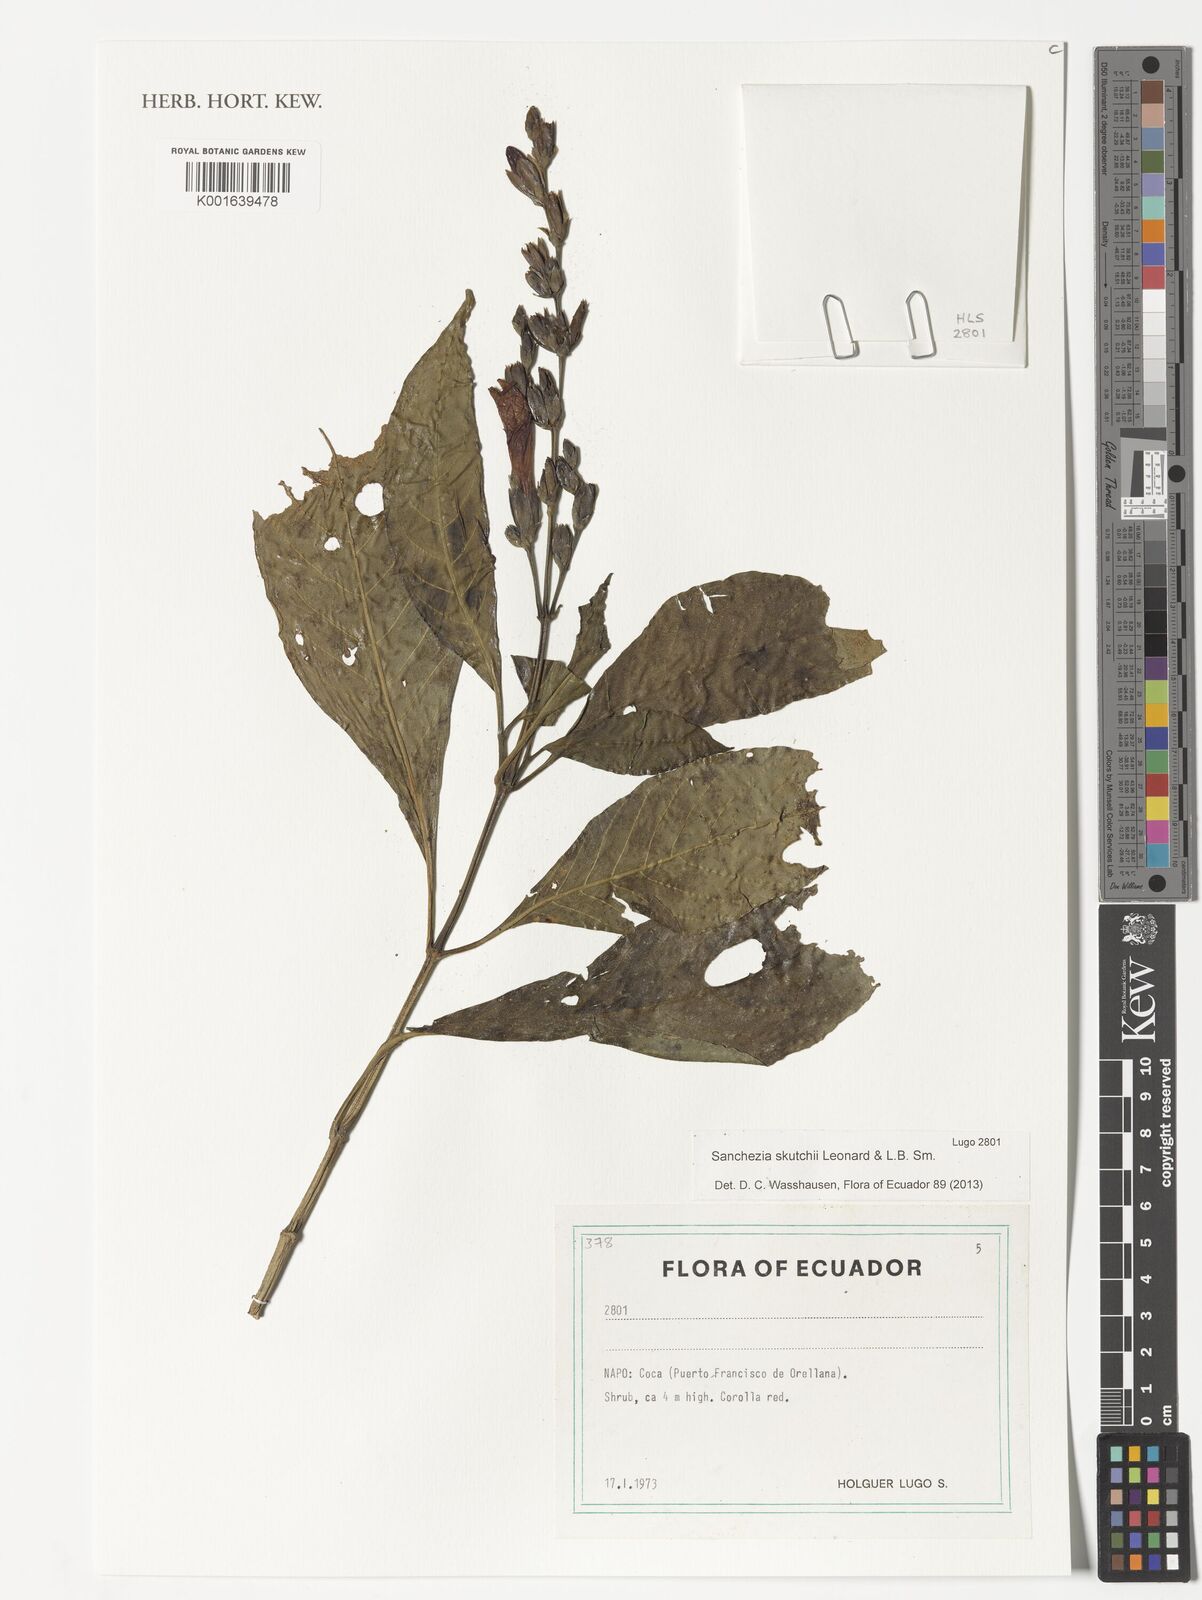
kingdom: Plantae
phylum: Tracheophyta
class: Magnoliopsida
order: Lamiales
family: Acanthaceae
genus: Sanchezia
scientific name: Sanchezia putumayensis
